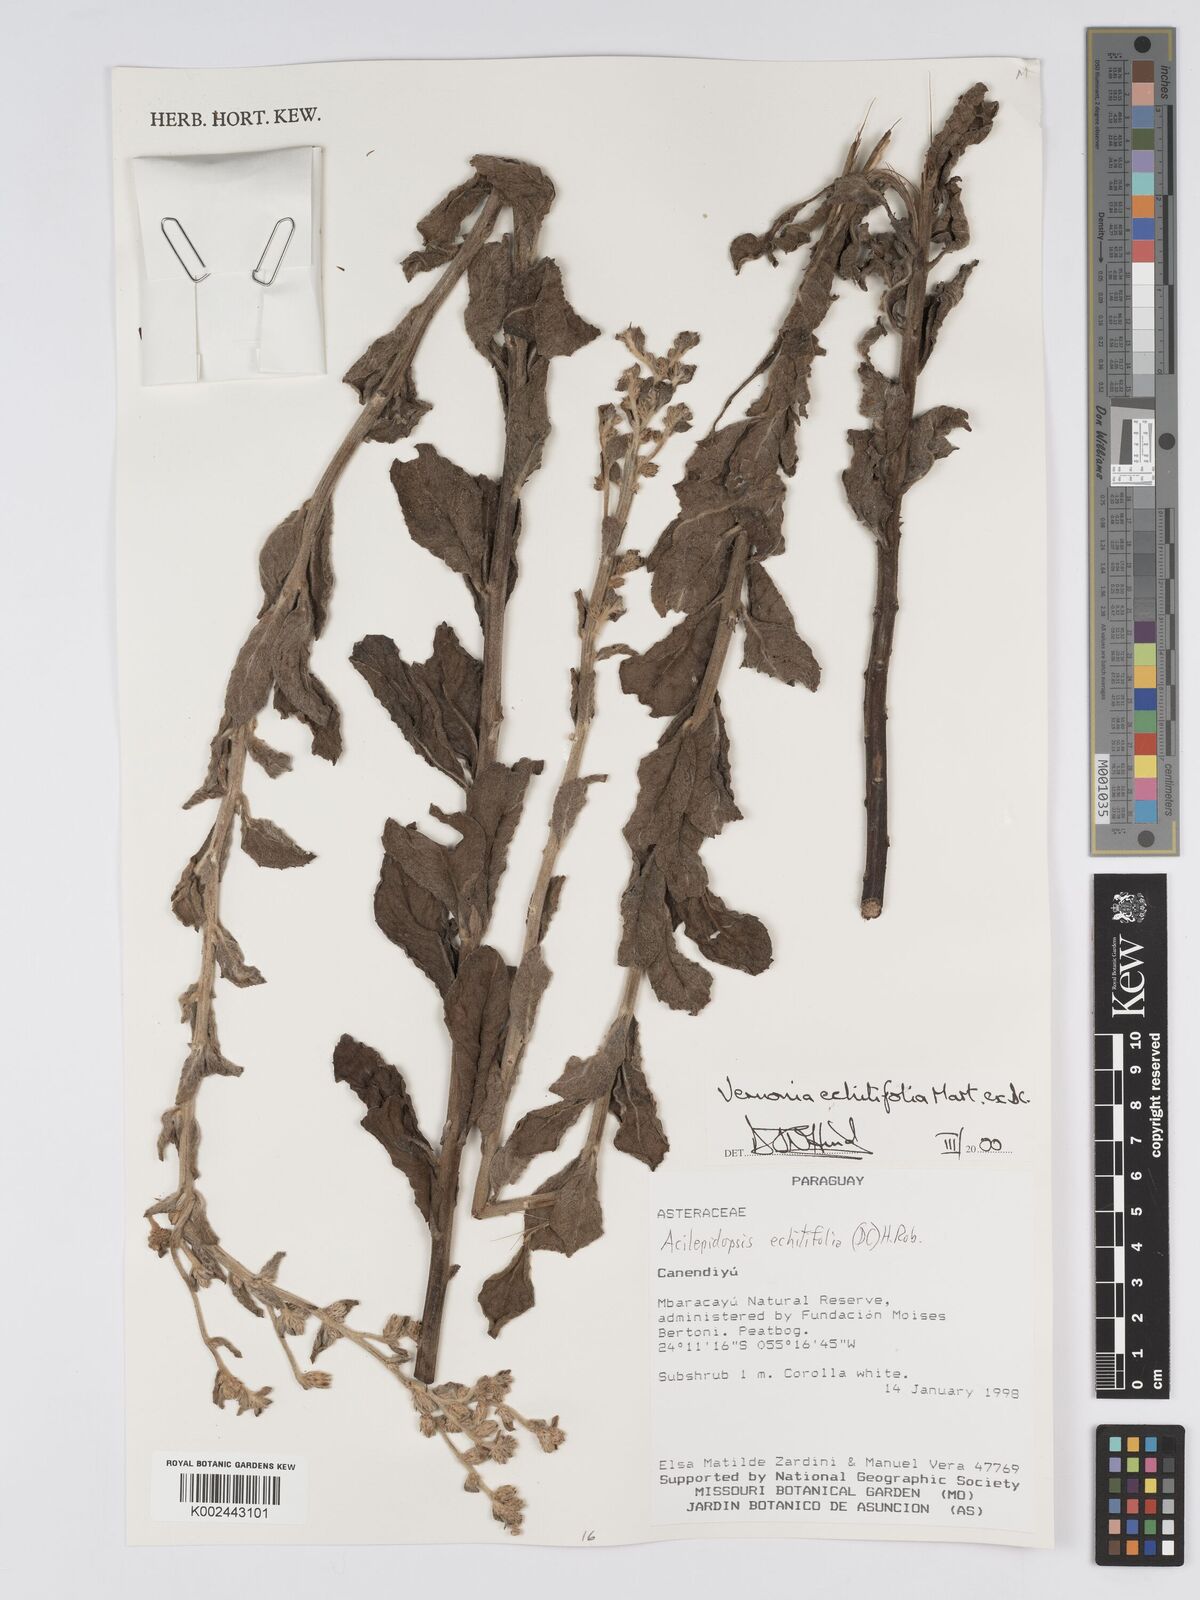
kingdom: Plantae
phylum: Tracheophyta
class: Magnoliopsida
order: Asterales
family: Asteraceae
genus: Acilepidopsis
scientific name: Acilepidopsis echitifolia
